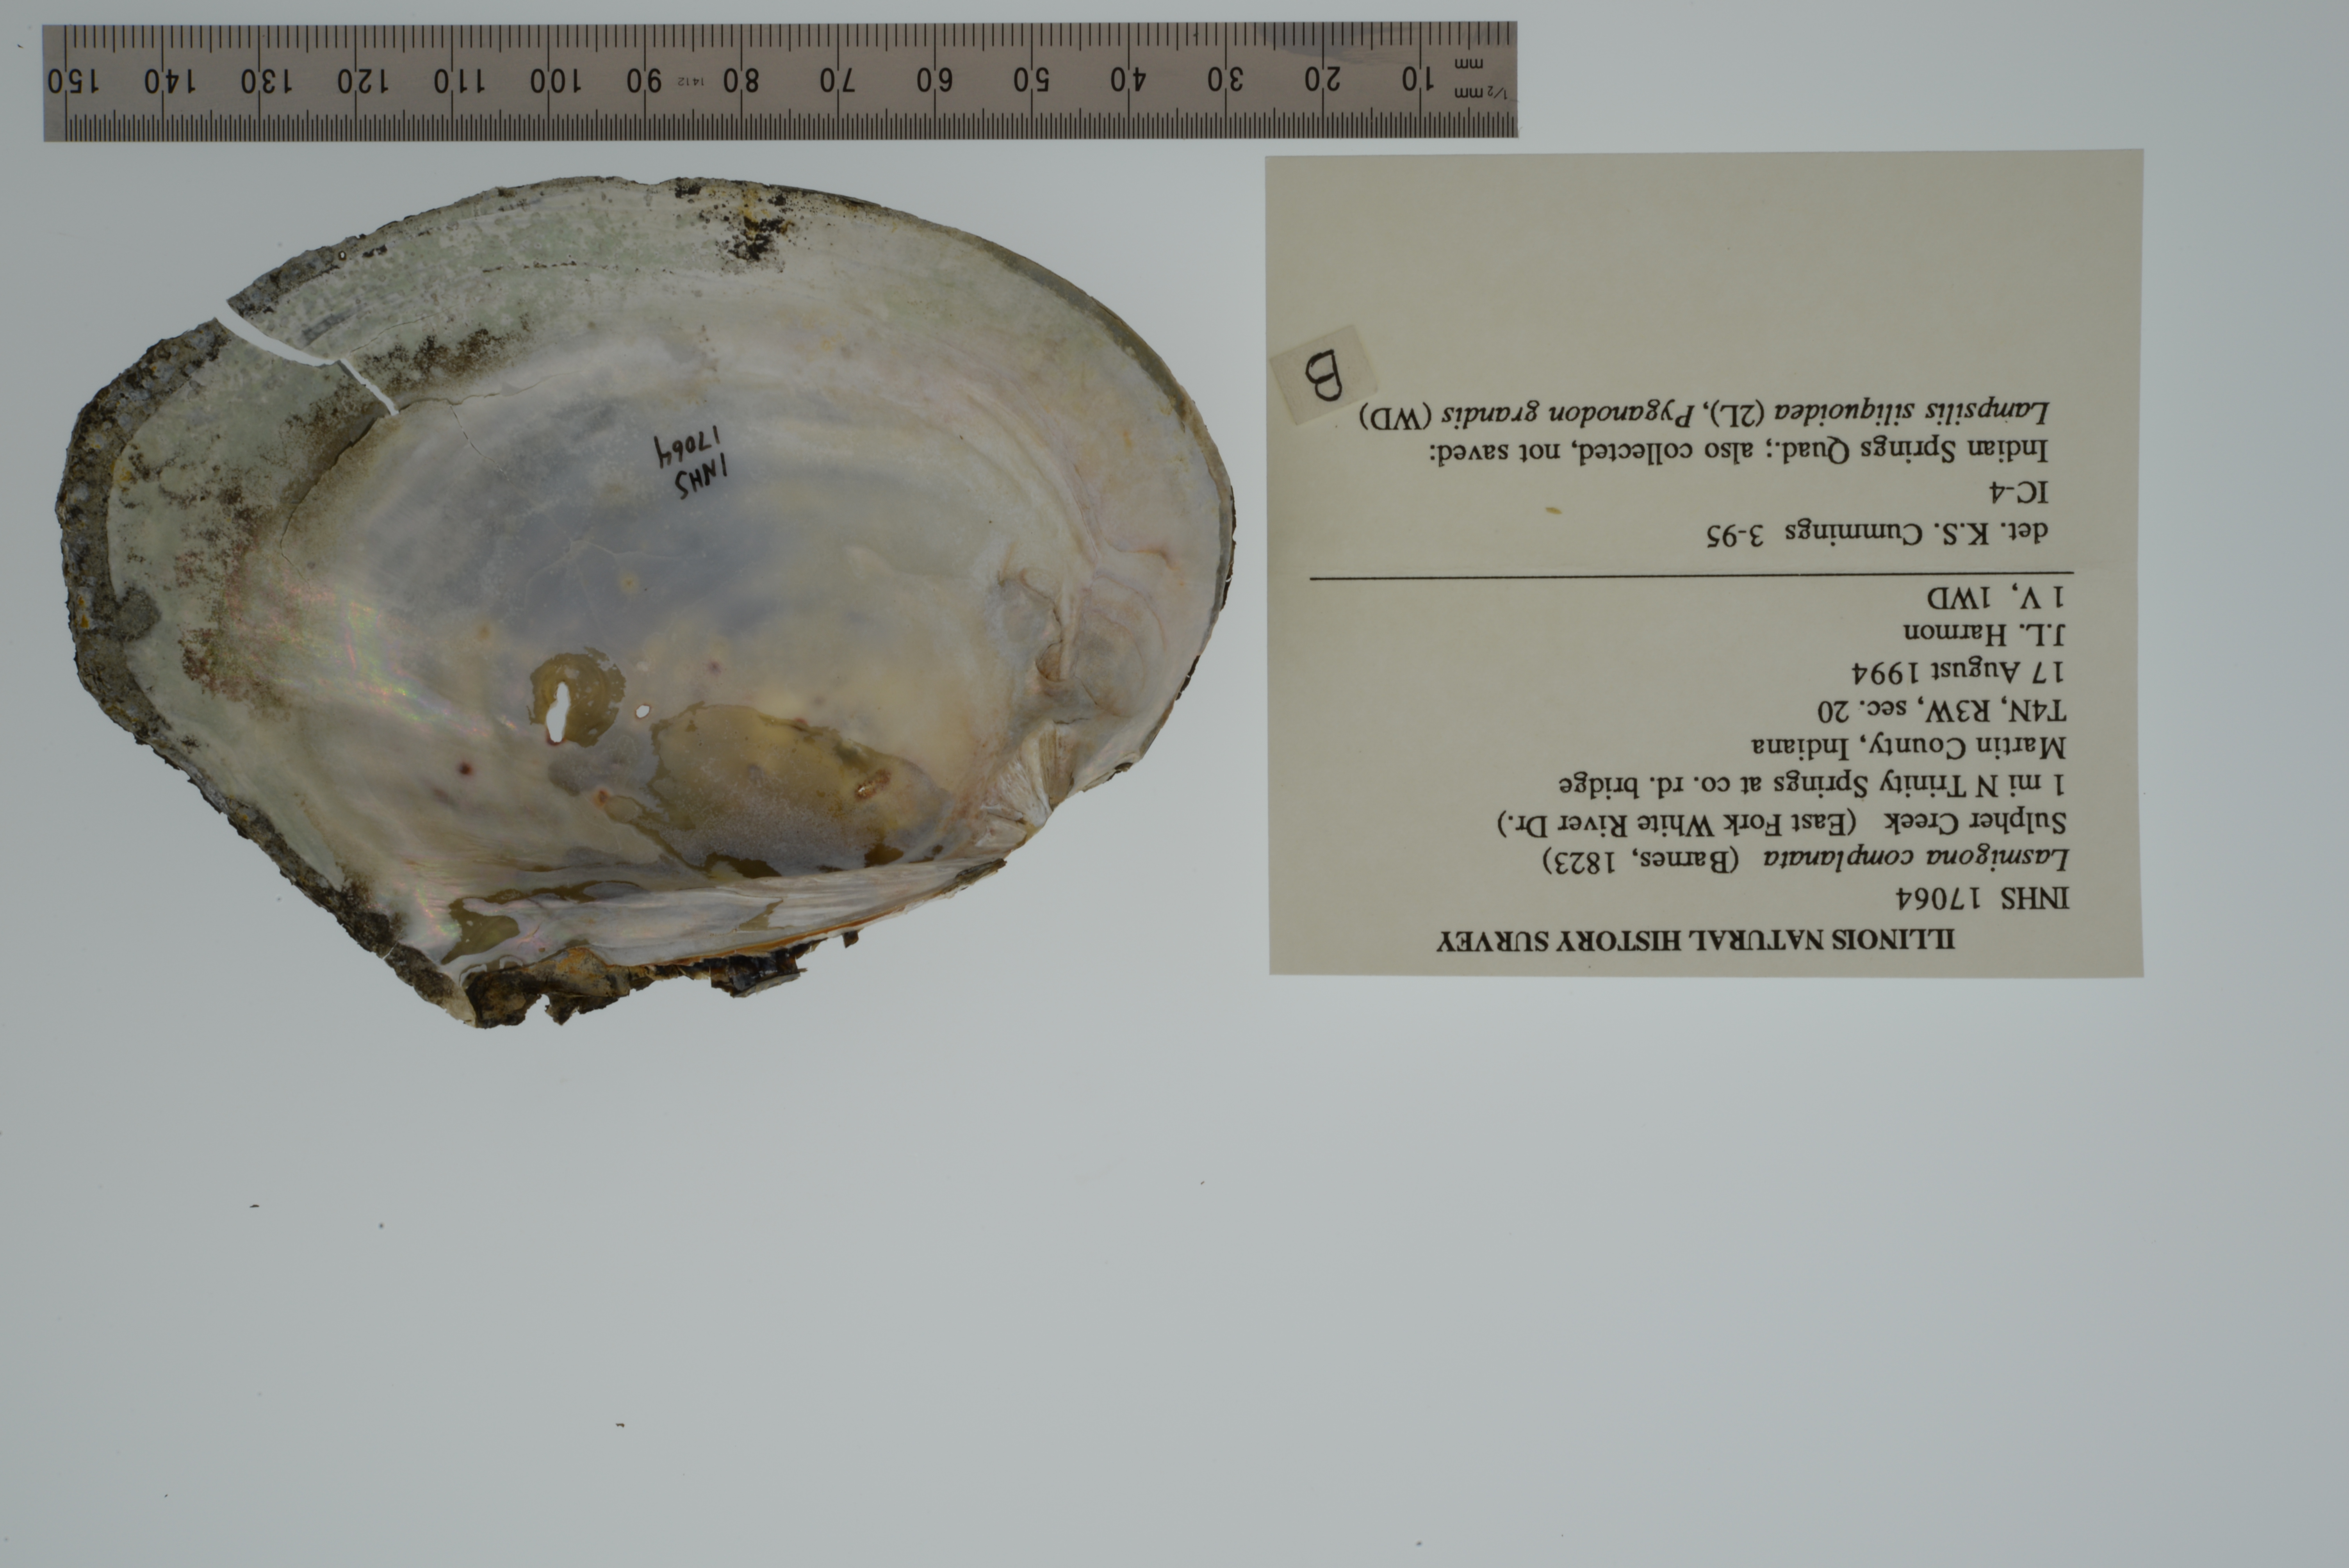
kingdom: Animalia
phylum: Mollusca
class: Bivalvia
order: Unionida
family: Unionidae
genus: Lasmigona
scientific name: Lasmigona complanata
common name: White heelsplitter
